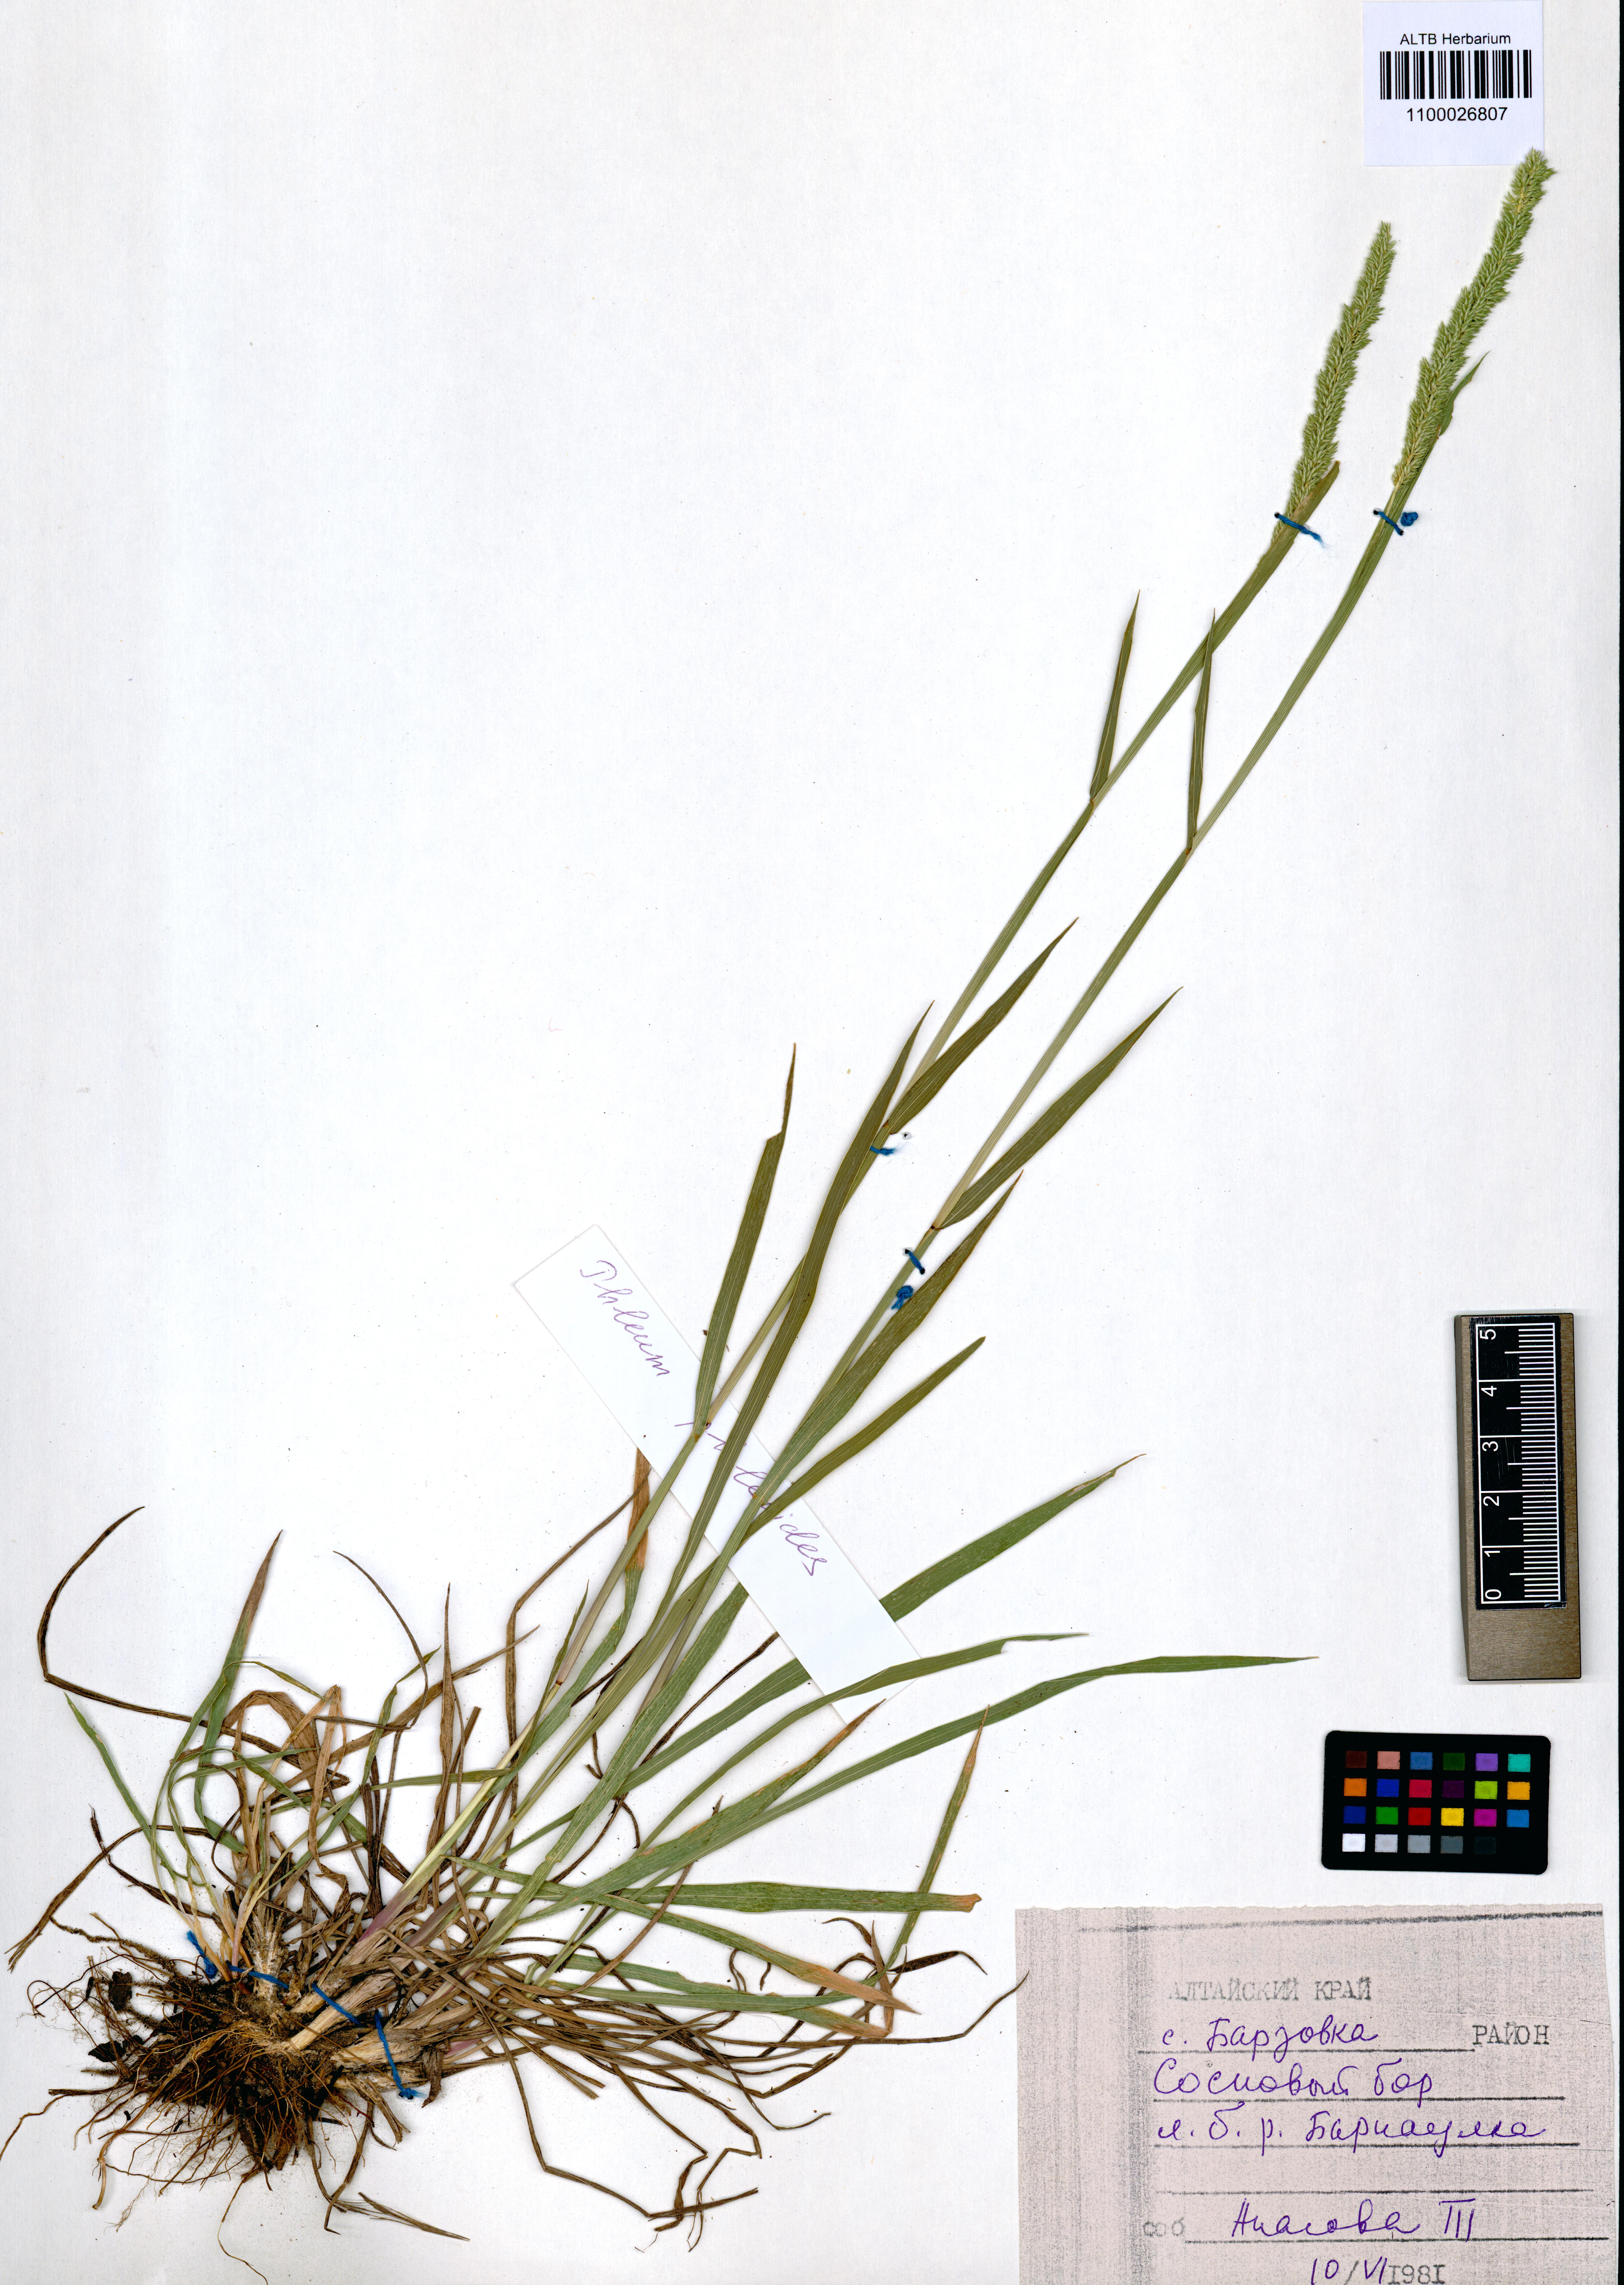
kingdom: Plantae
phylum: Tracheophyta
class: Liliopsida
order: Poales
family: Poaceae
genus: Phleum
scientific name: Phleum phleoides
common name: Purple-stem cat's-tail
